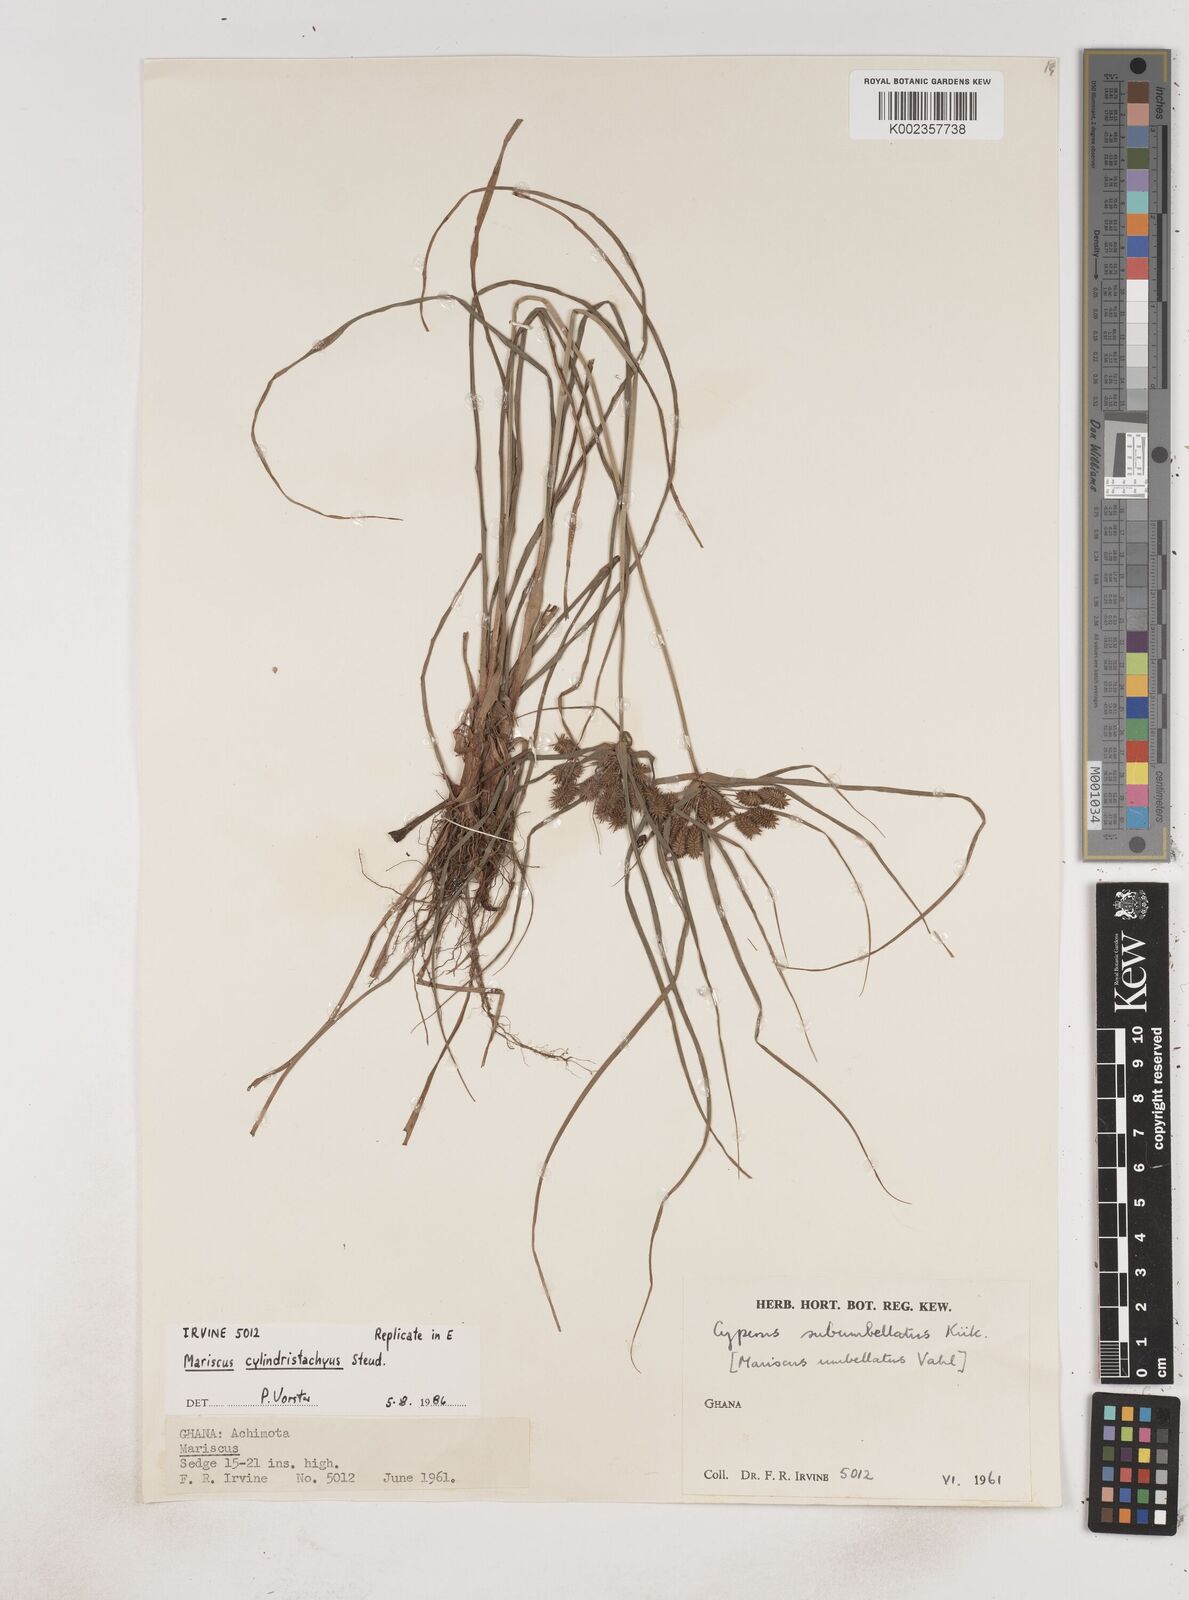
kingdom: Plantae
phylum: Tracheophyta
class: Liliopsida
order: Poales
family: Cyperaceae
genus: Cyperus
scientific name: Cyperus sublimis
